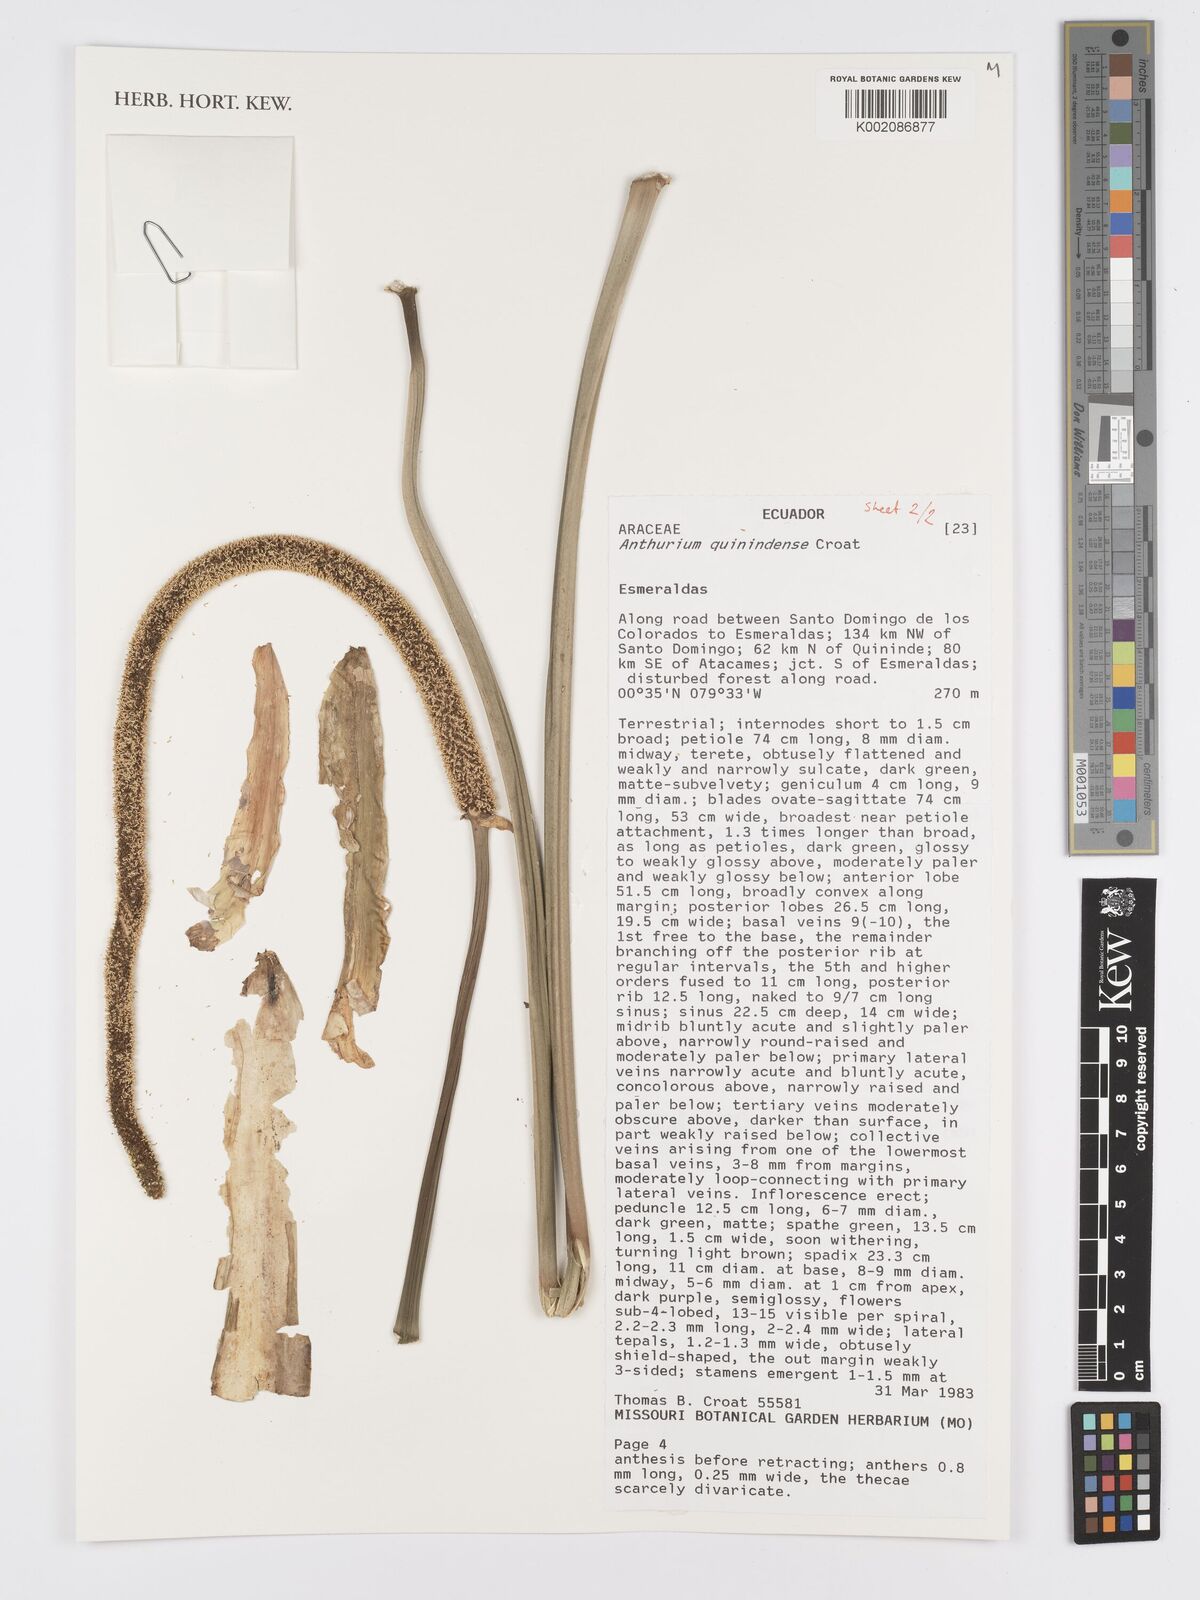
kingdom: Plantae
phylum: Tracheophyta
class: Liliopsida
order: Alismatales
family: Araceae
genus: Anthurium
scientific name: Anthurium quinindense
